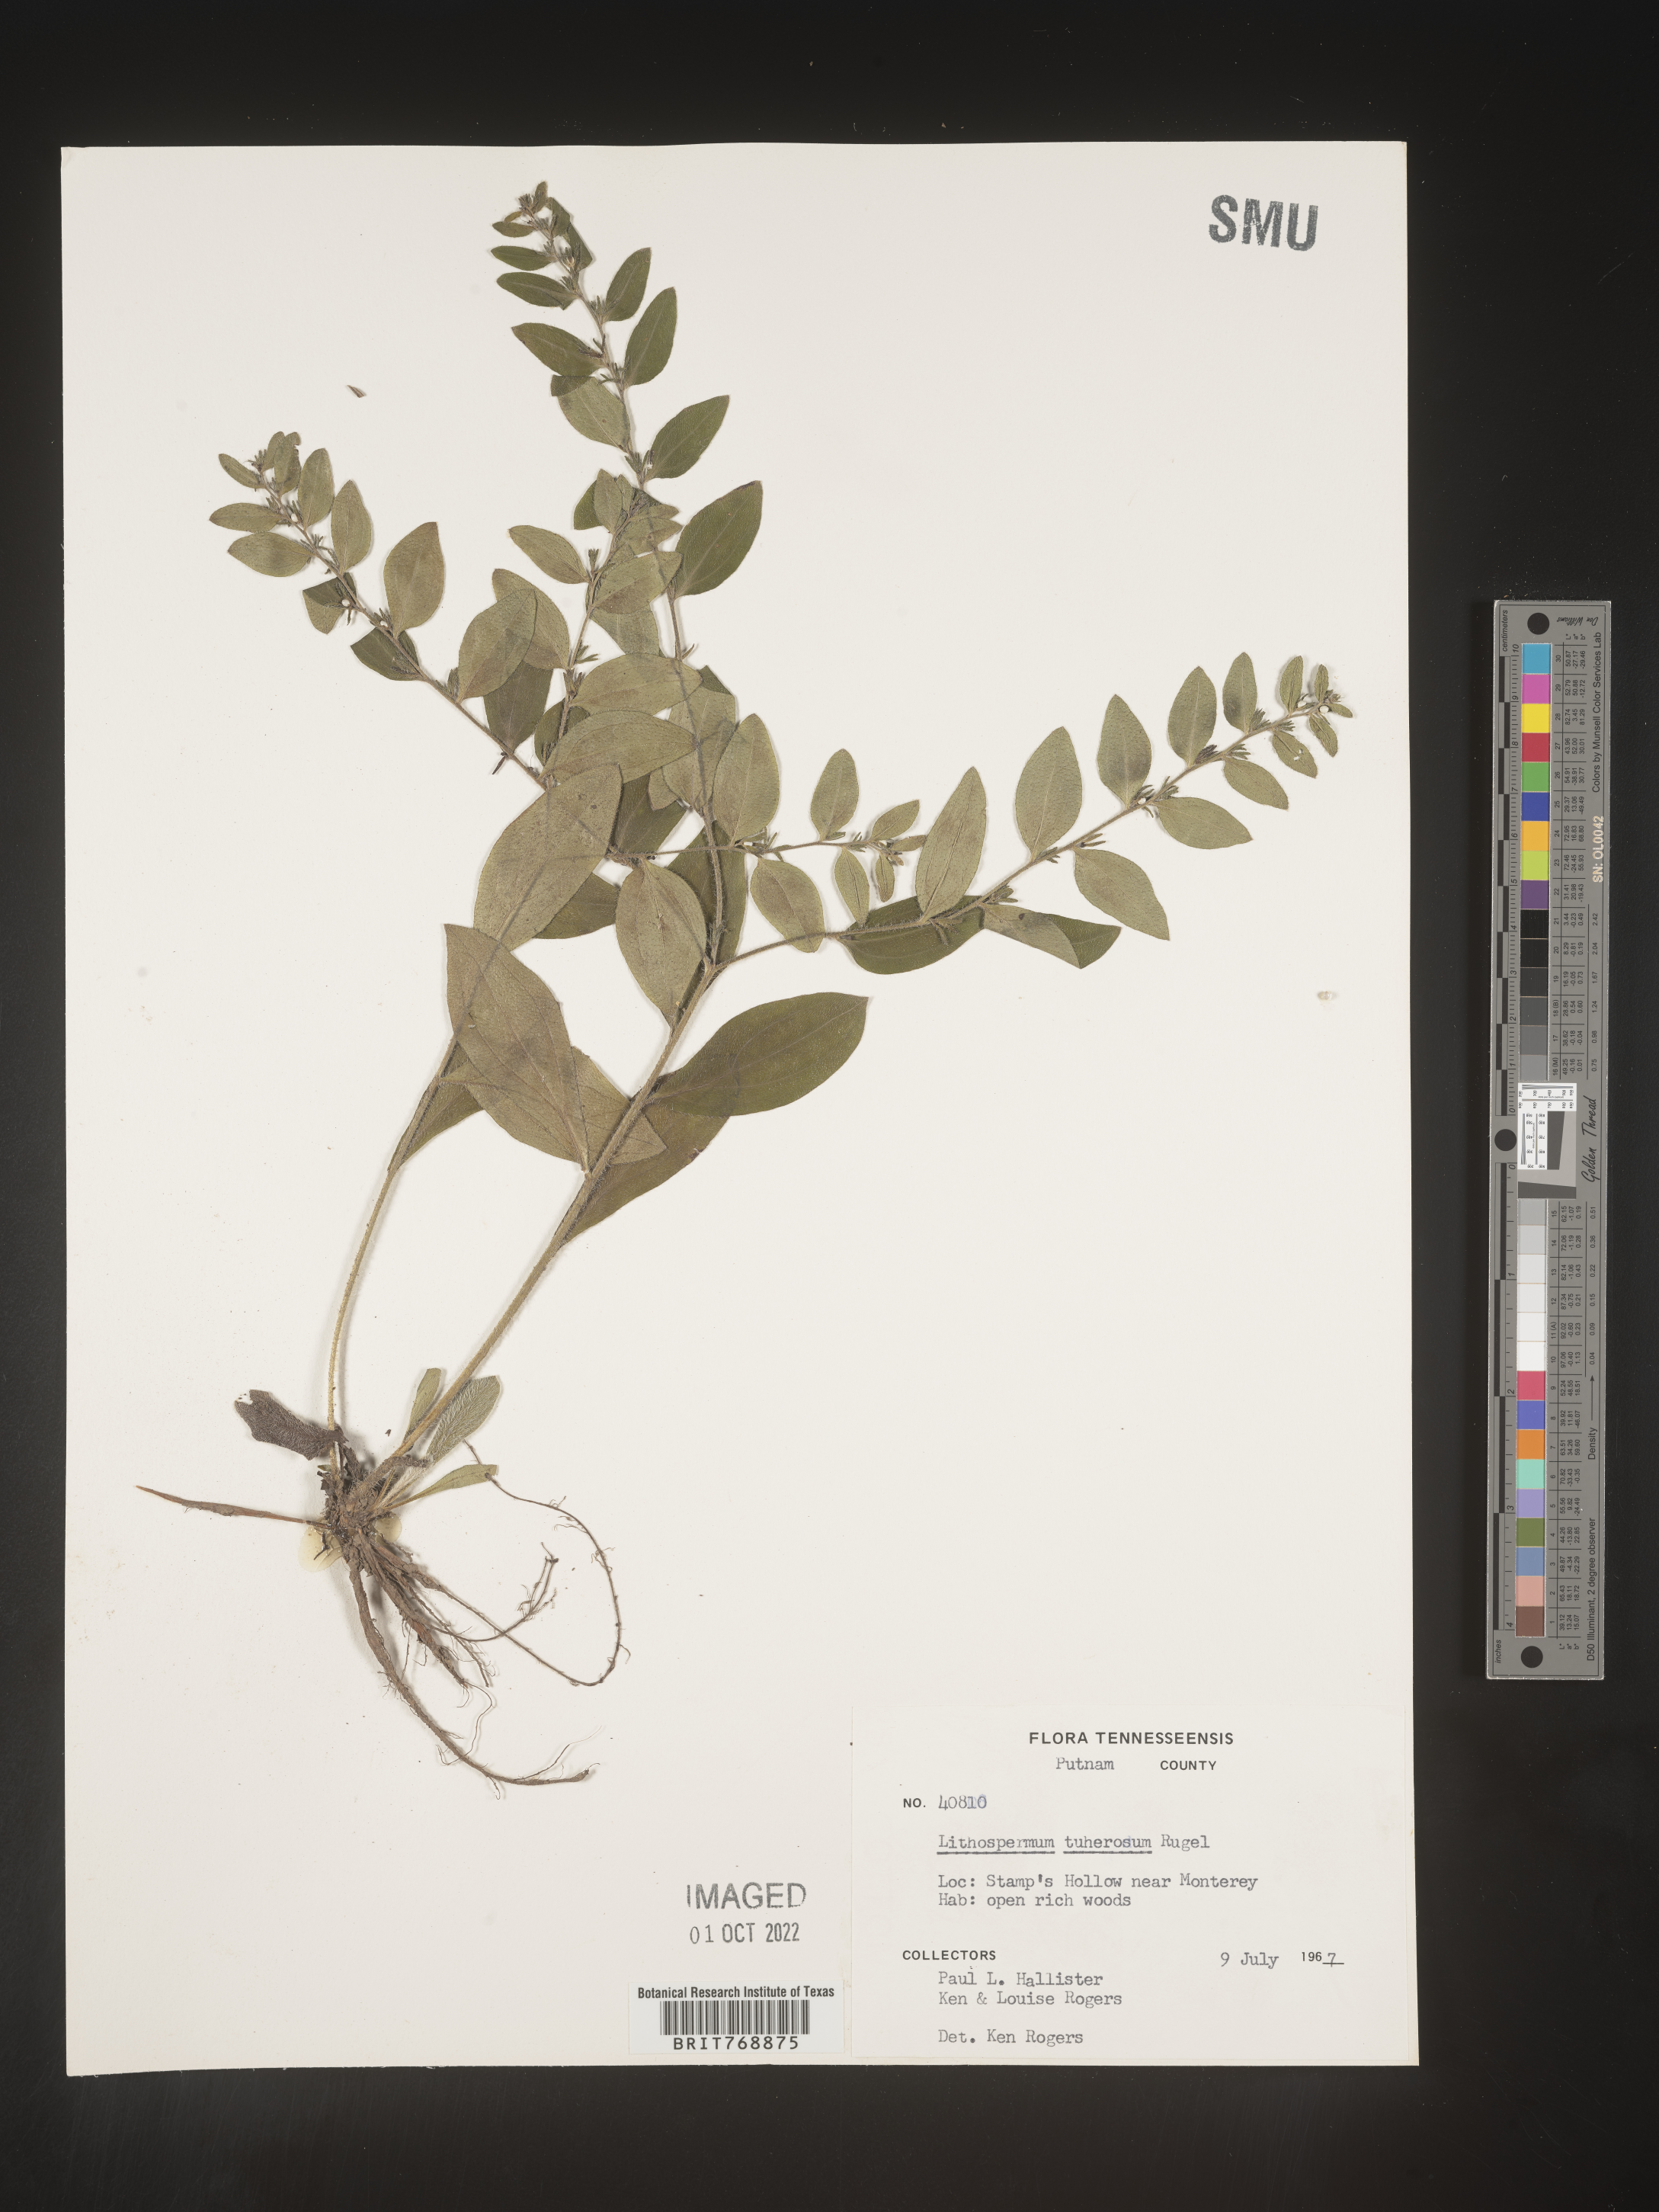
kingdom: Plantae
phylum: Tracheophyta
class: Magnoliopsida
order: Boraginales
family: Boraginaceae
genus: Lithospermum
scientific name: Lithospermum
